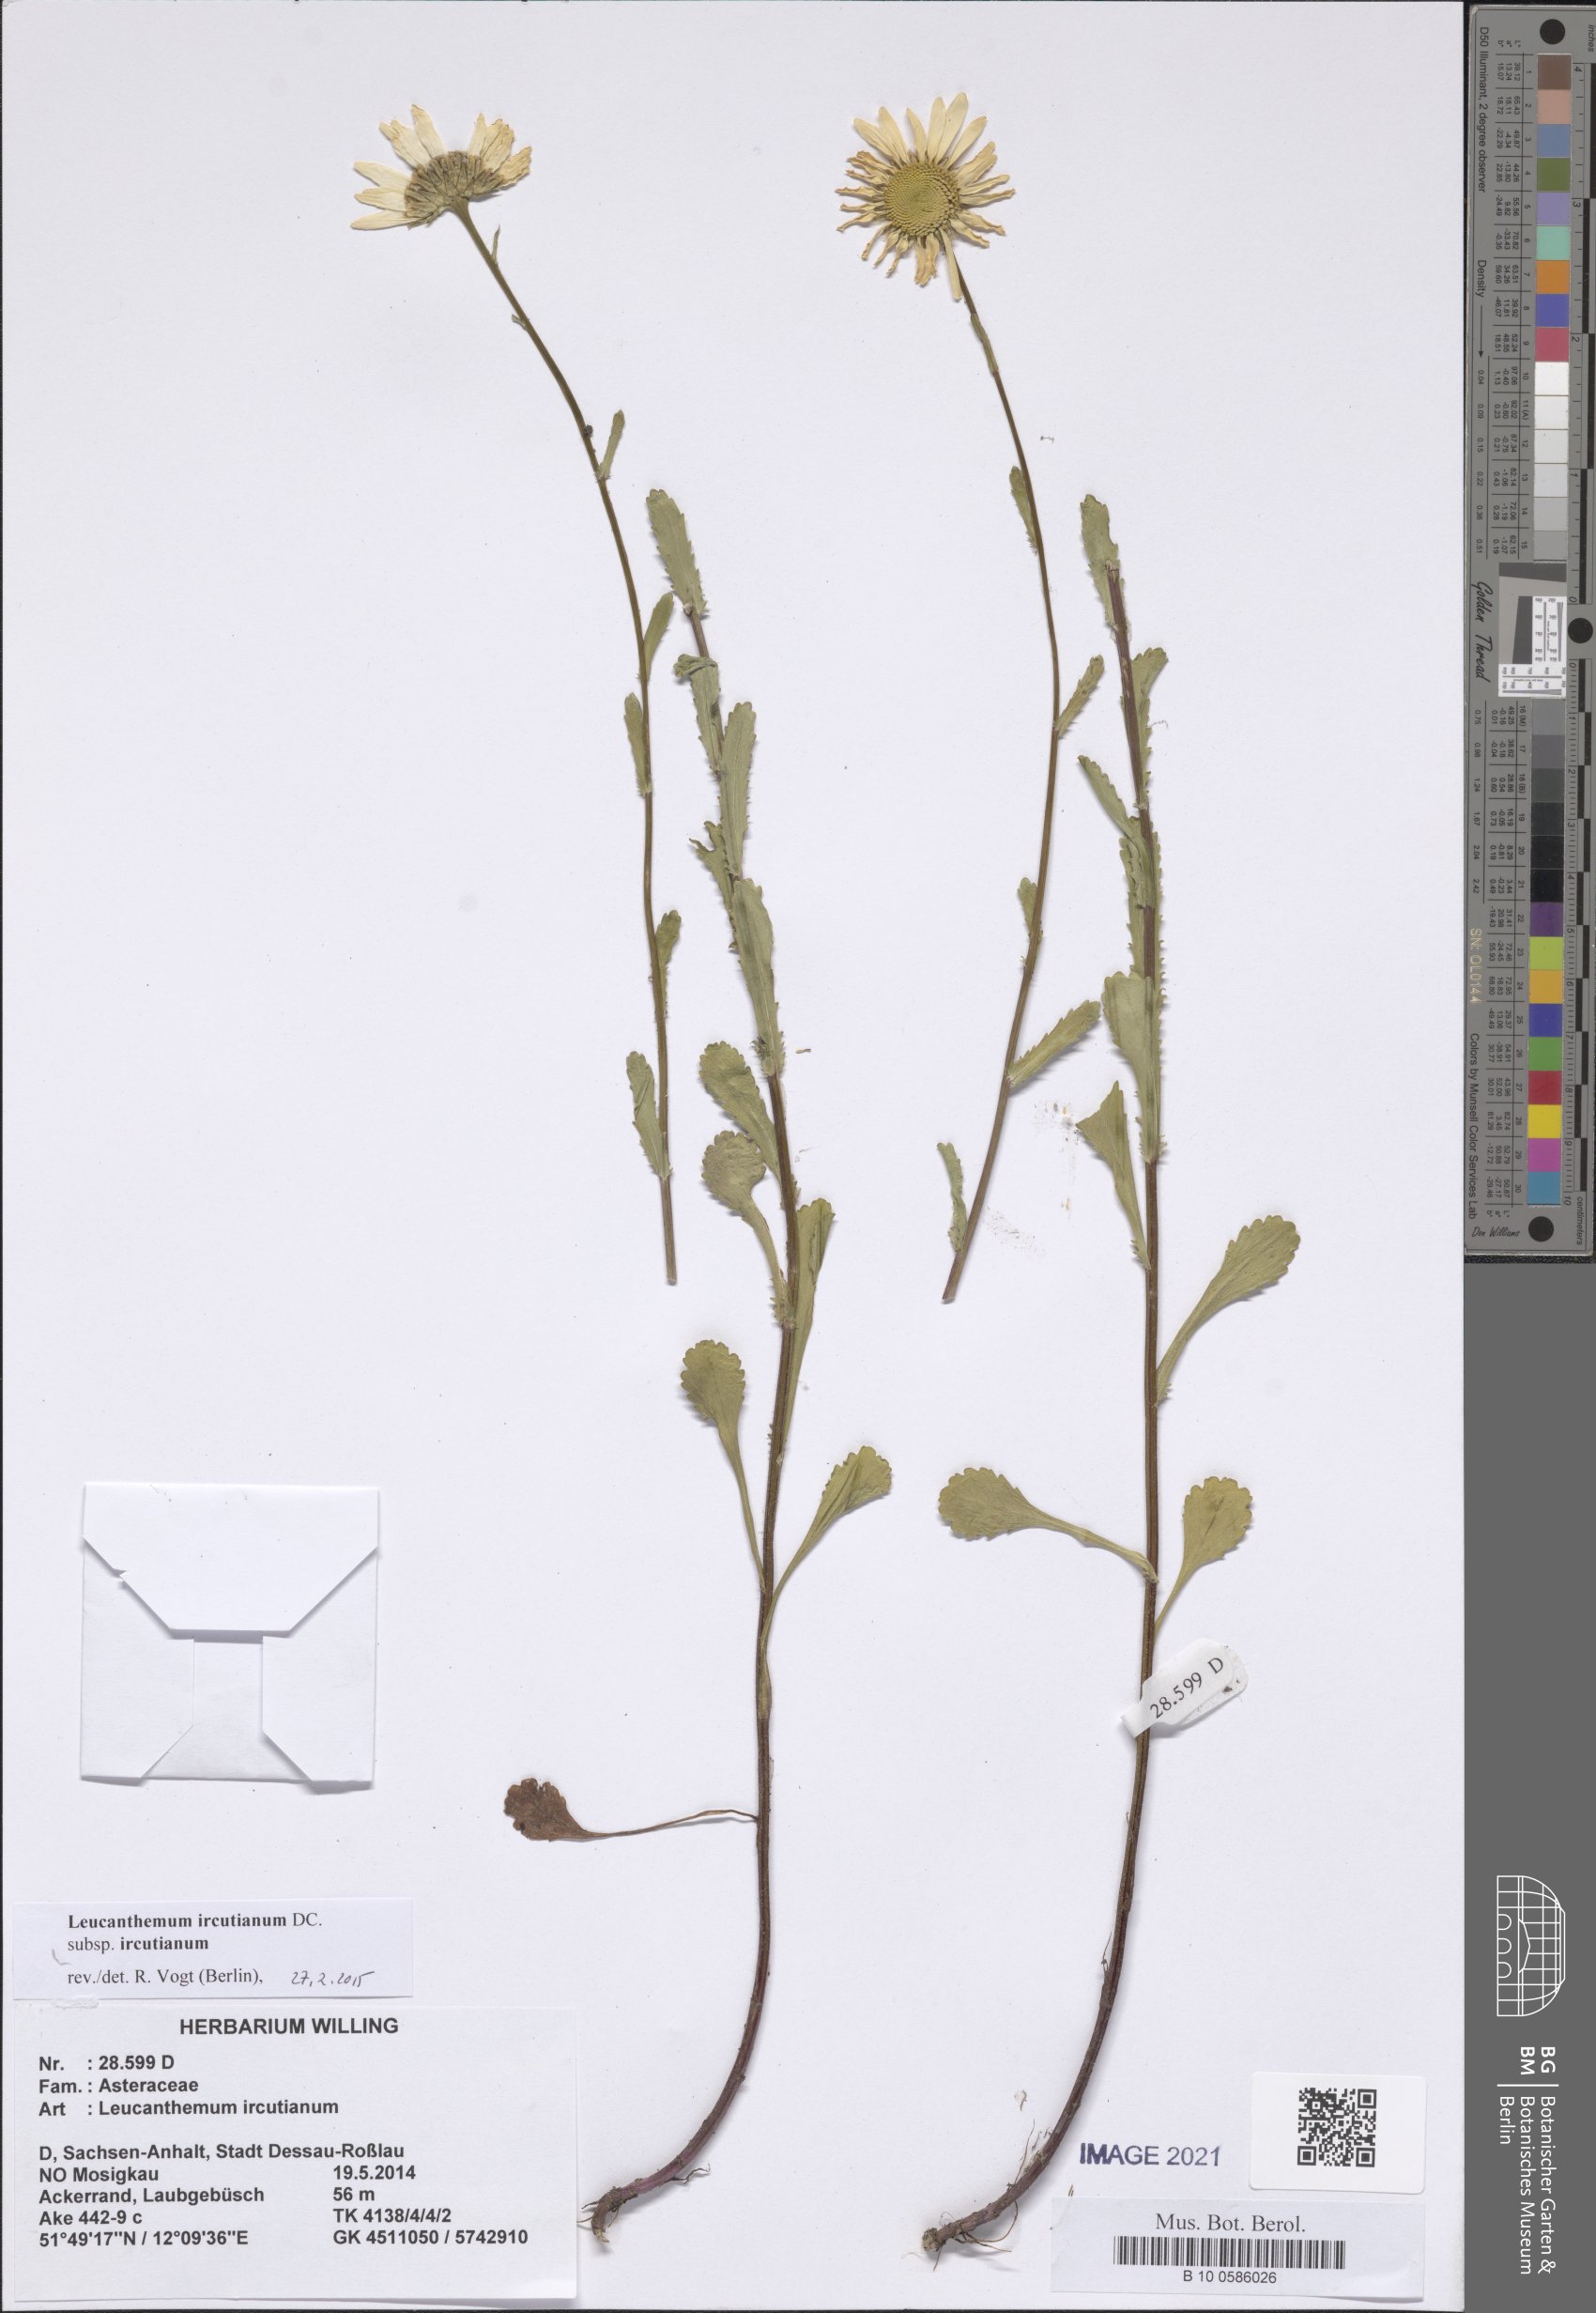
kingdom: Plantae
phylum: Tracheophyta
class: Magnoliopsida
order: Asterales
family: Asteraceae
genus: Leucanthemum
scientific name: Leucanthemum ircutianum
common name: Daisy
